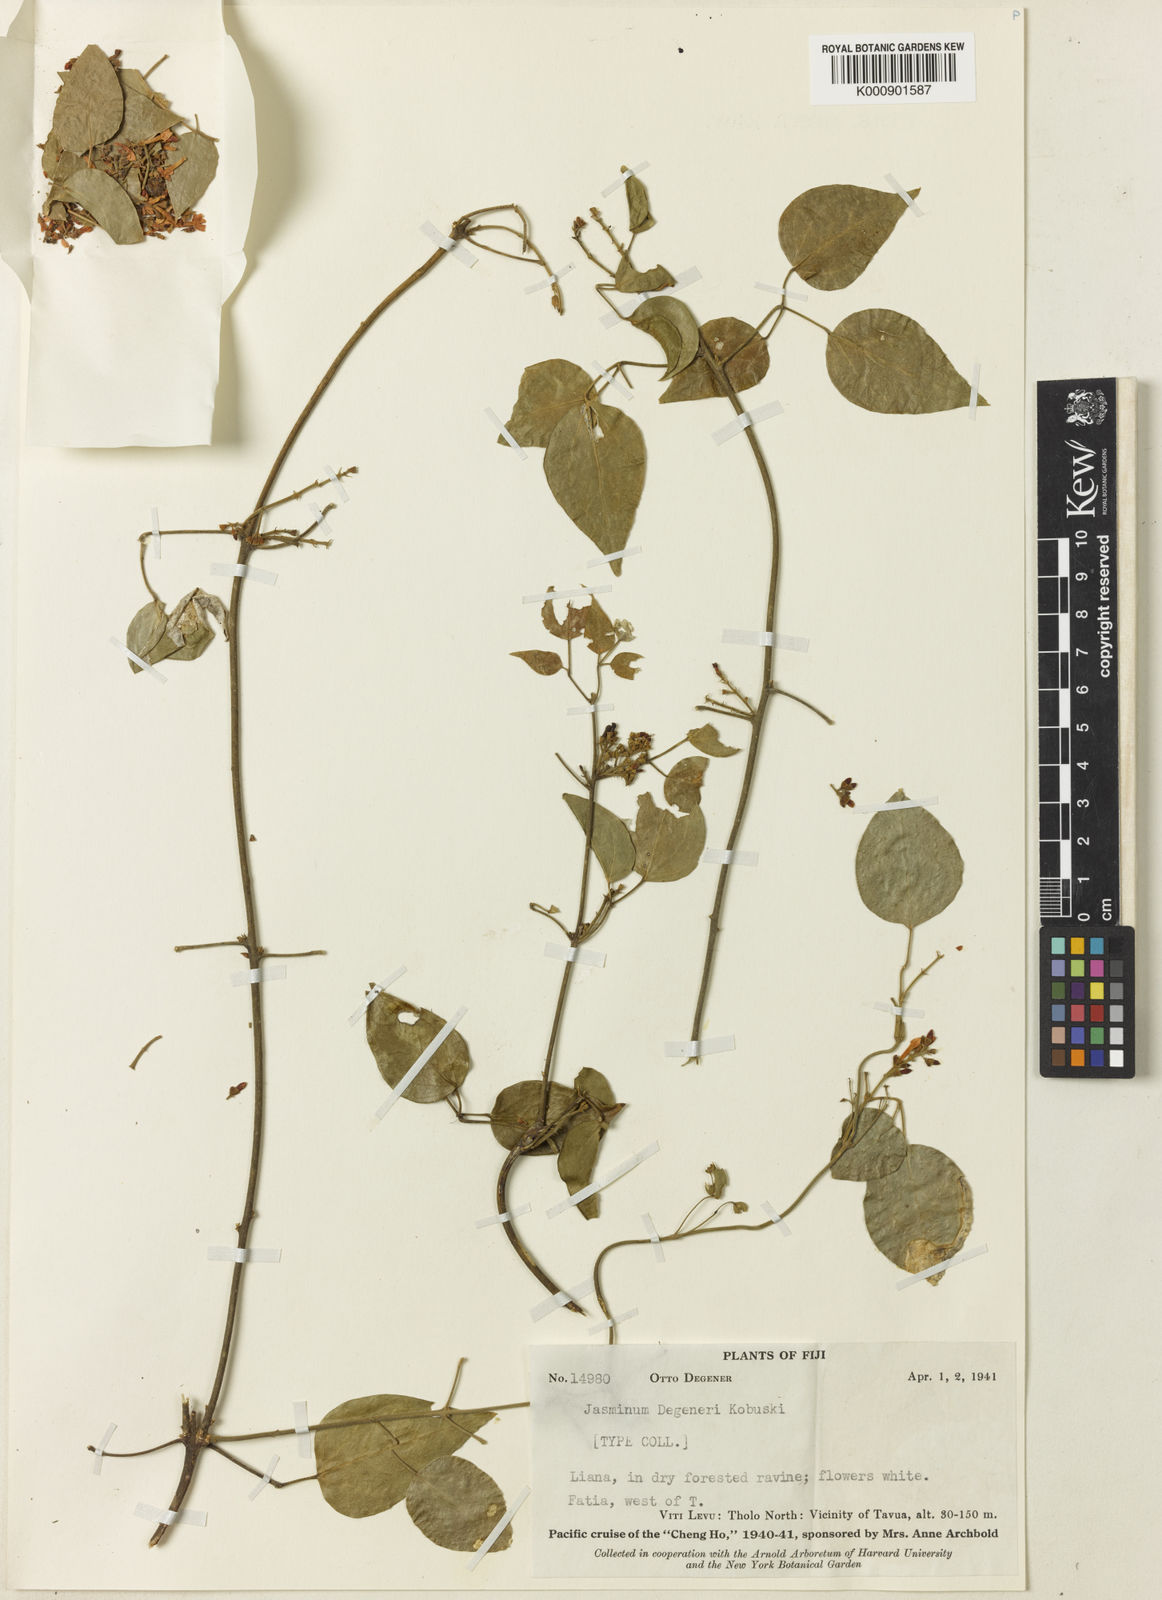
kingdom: Plantae
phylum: Tracheophyta
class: Magnoliopsida
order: Lamiales
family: Oleaceae
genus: Jasminum
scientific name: Jasminum degeneri
